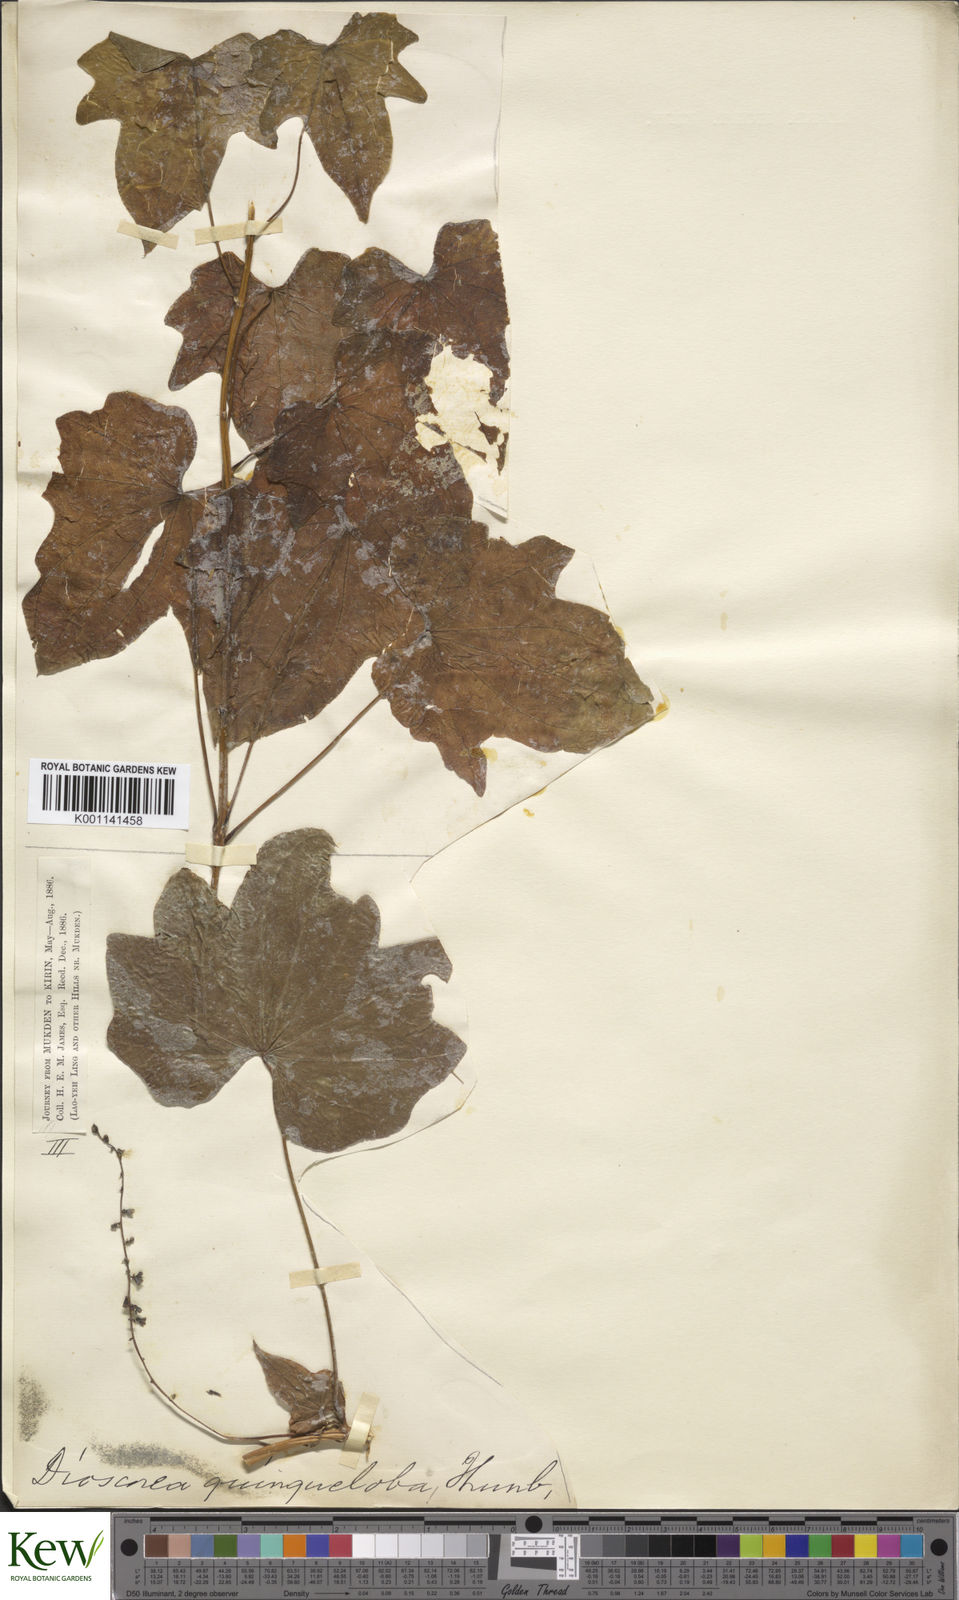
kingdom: Plantae
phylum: Tracheophyta
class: Liliopsida
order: Dioscoreales
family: Dioscoreaceae
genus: Dioscorea
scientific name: Dioscorea quinquelobata
